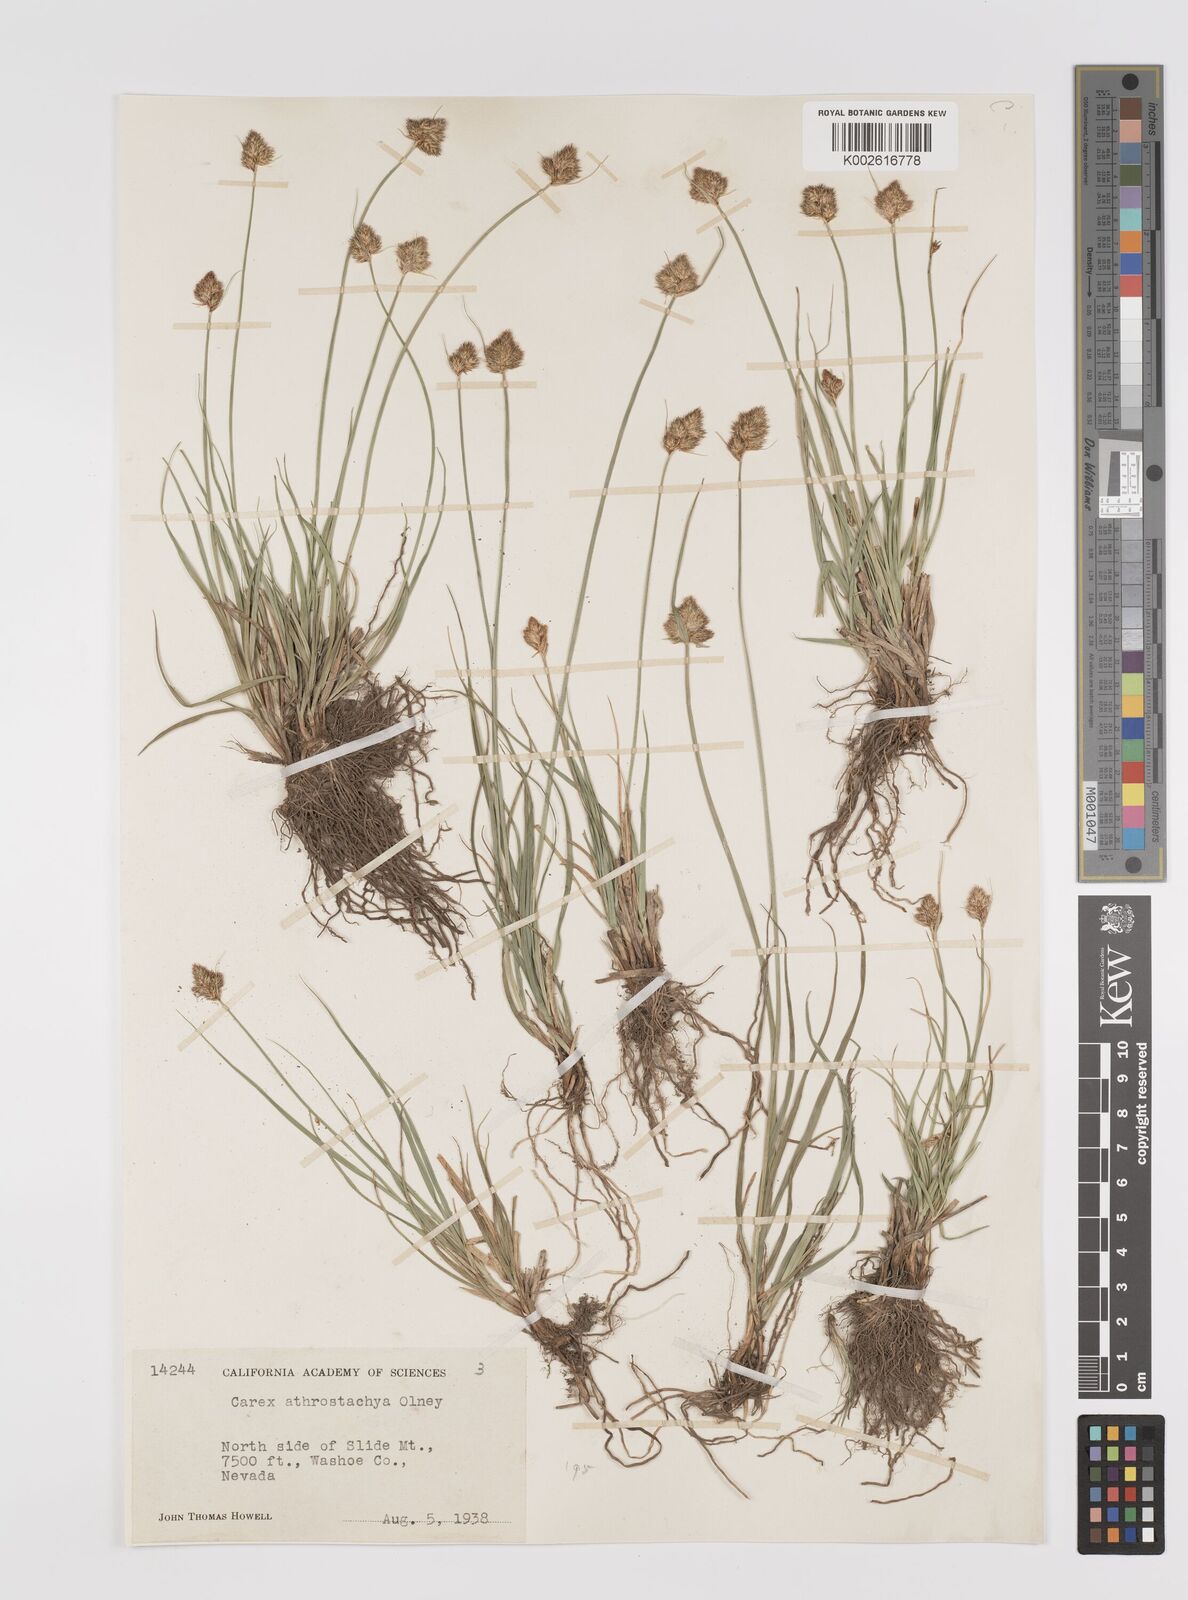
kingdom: Plantae
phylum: Tracheophyta
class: Liliopsida
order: Poales
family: Cyperaceae
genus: Carex
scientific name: Carex athrostachya
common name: Slenderbeak sedge
